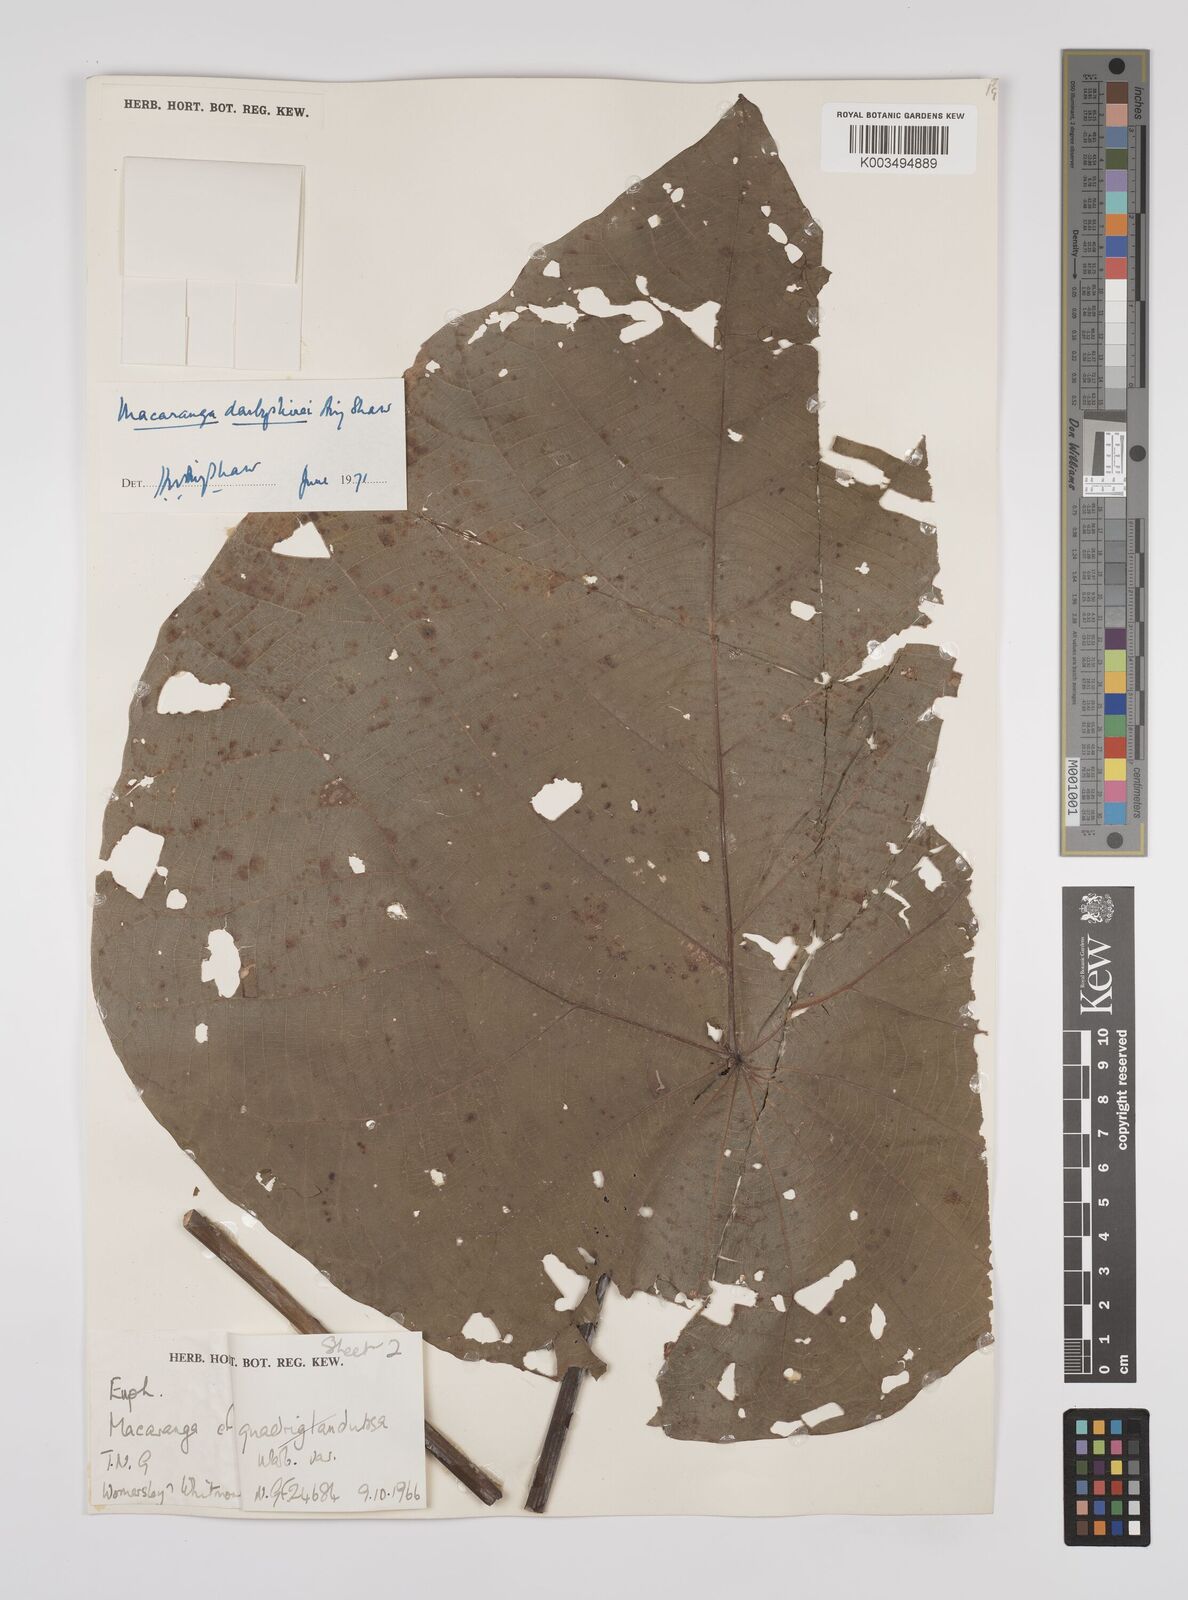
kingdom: Plantae
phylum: Tracheophyta
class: Magnoliopsida
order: Malpighiales
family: Euphorbiaceae
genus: Macaranga
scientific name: Macaranga darbyshirei
